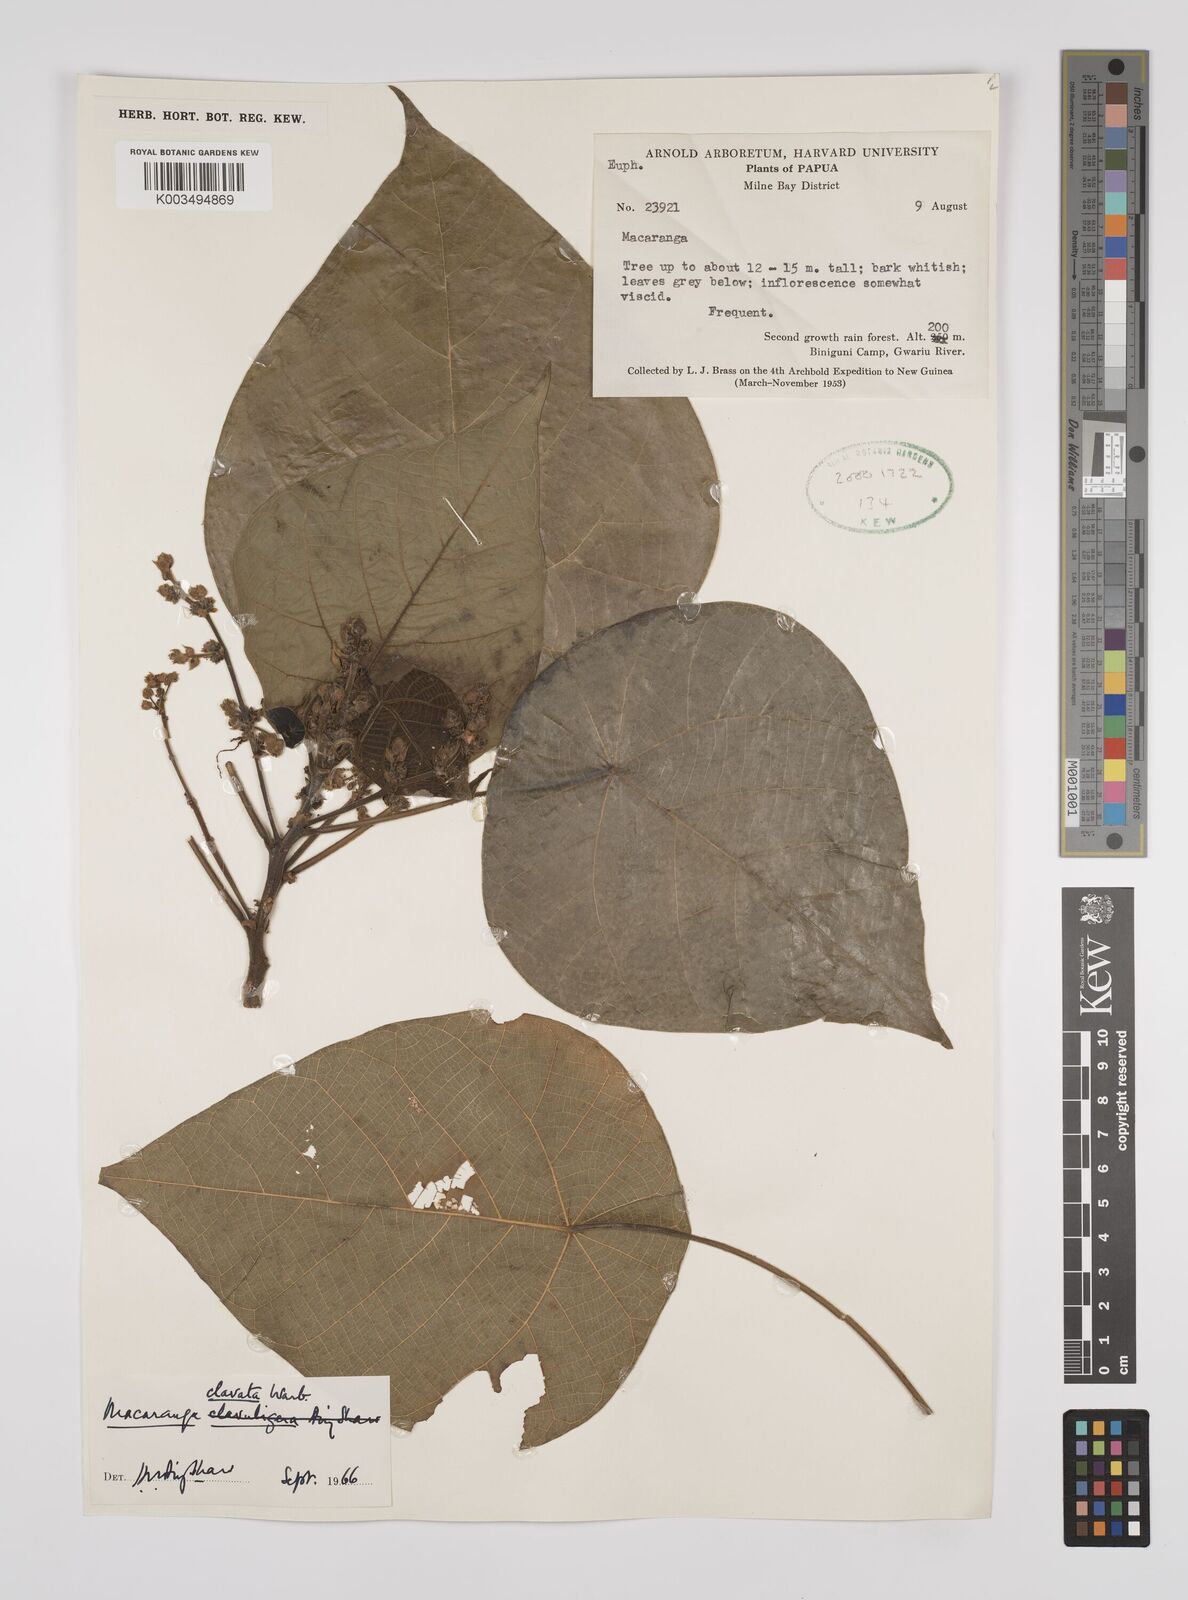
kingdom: Plantae
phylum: Tracheophyta
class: Magnoliopsida
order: Malpighiales
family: Euphorbiaceae
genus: Macaranga
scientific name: Macaranga clavata
